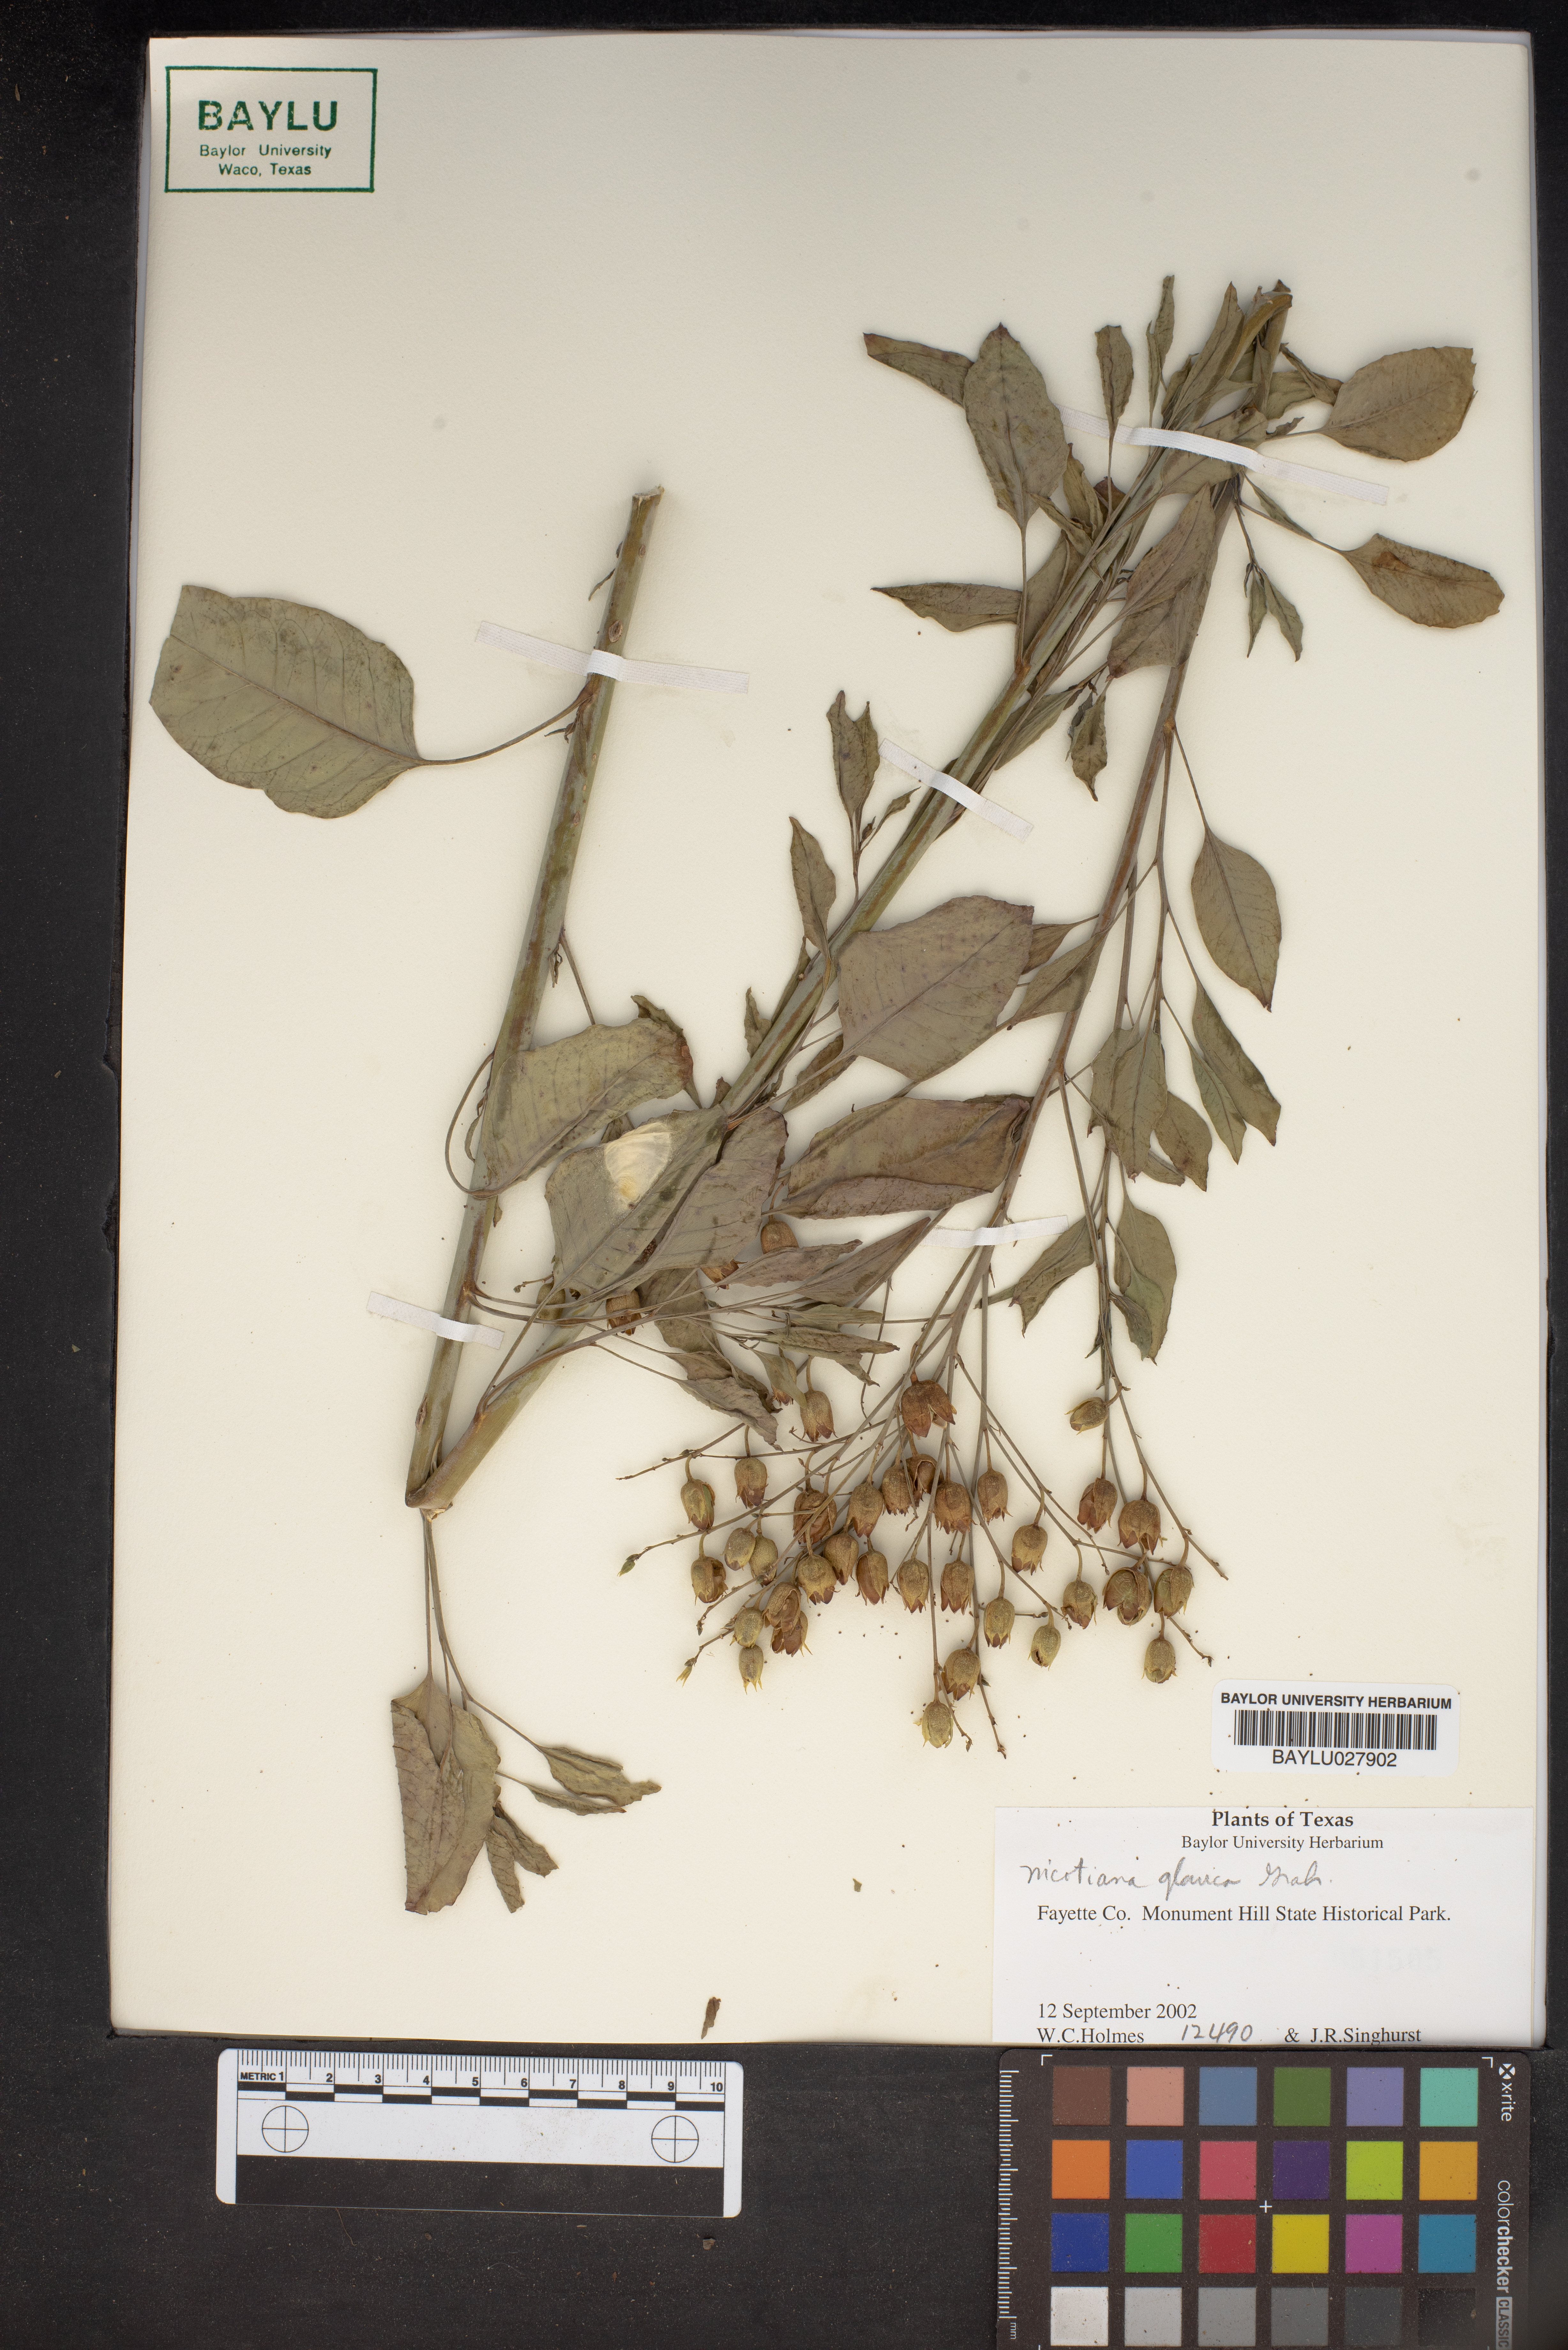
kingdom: Plantae
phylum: Tracheophyta
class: Magnoliopsida
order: Solanales
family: Solanaceae
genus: Nicotiana
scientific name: Nicotiana glauca
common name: Tree tobacco
